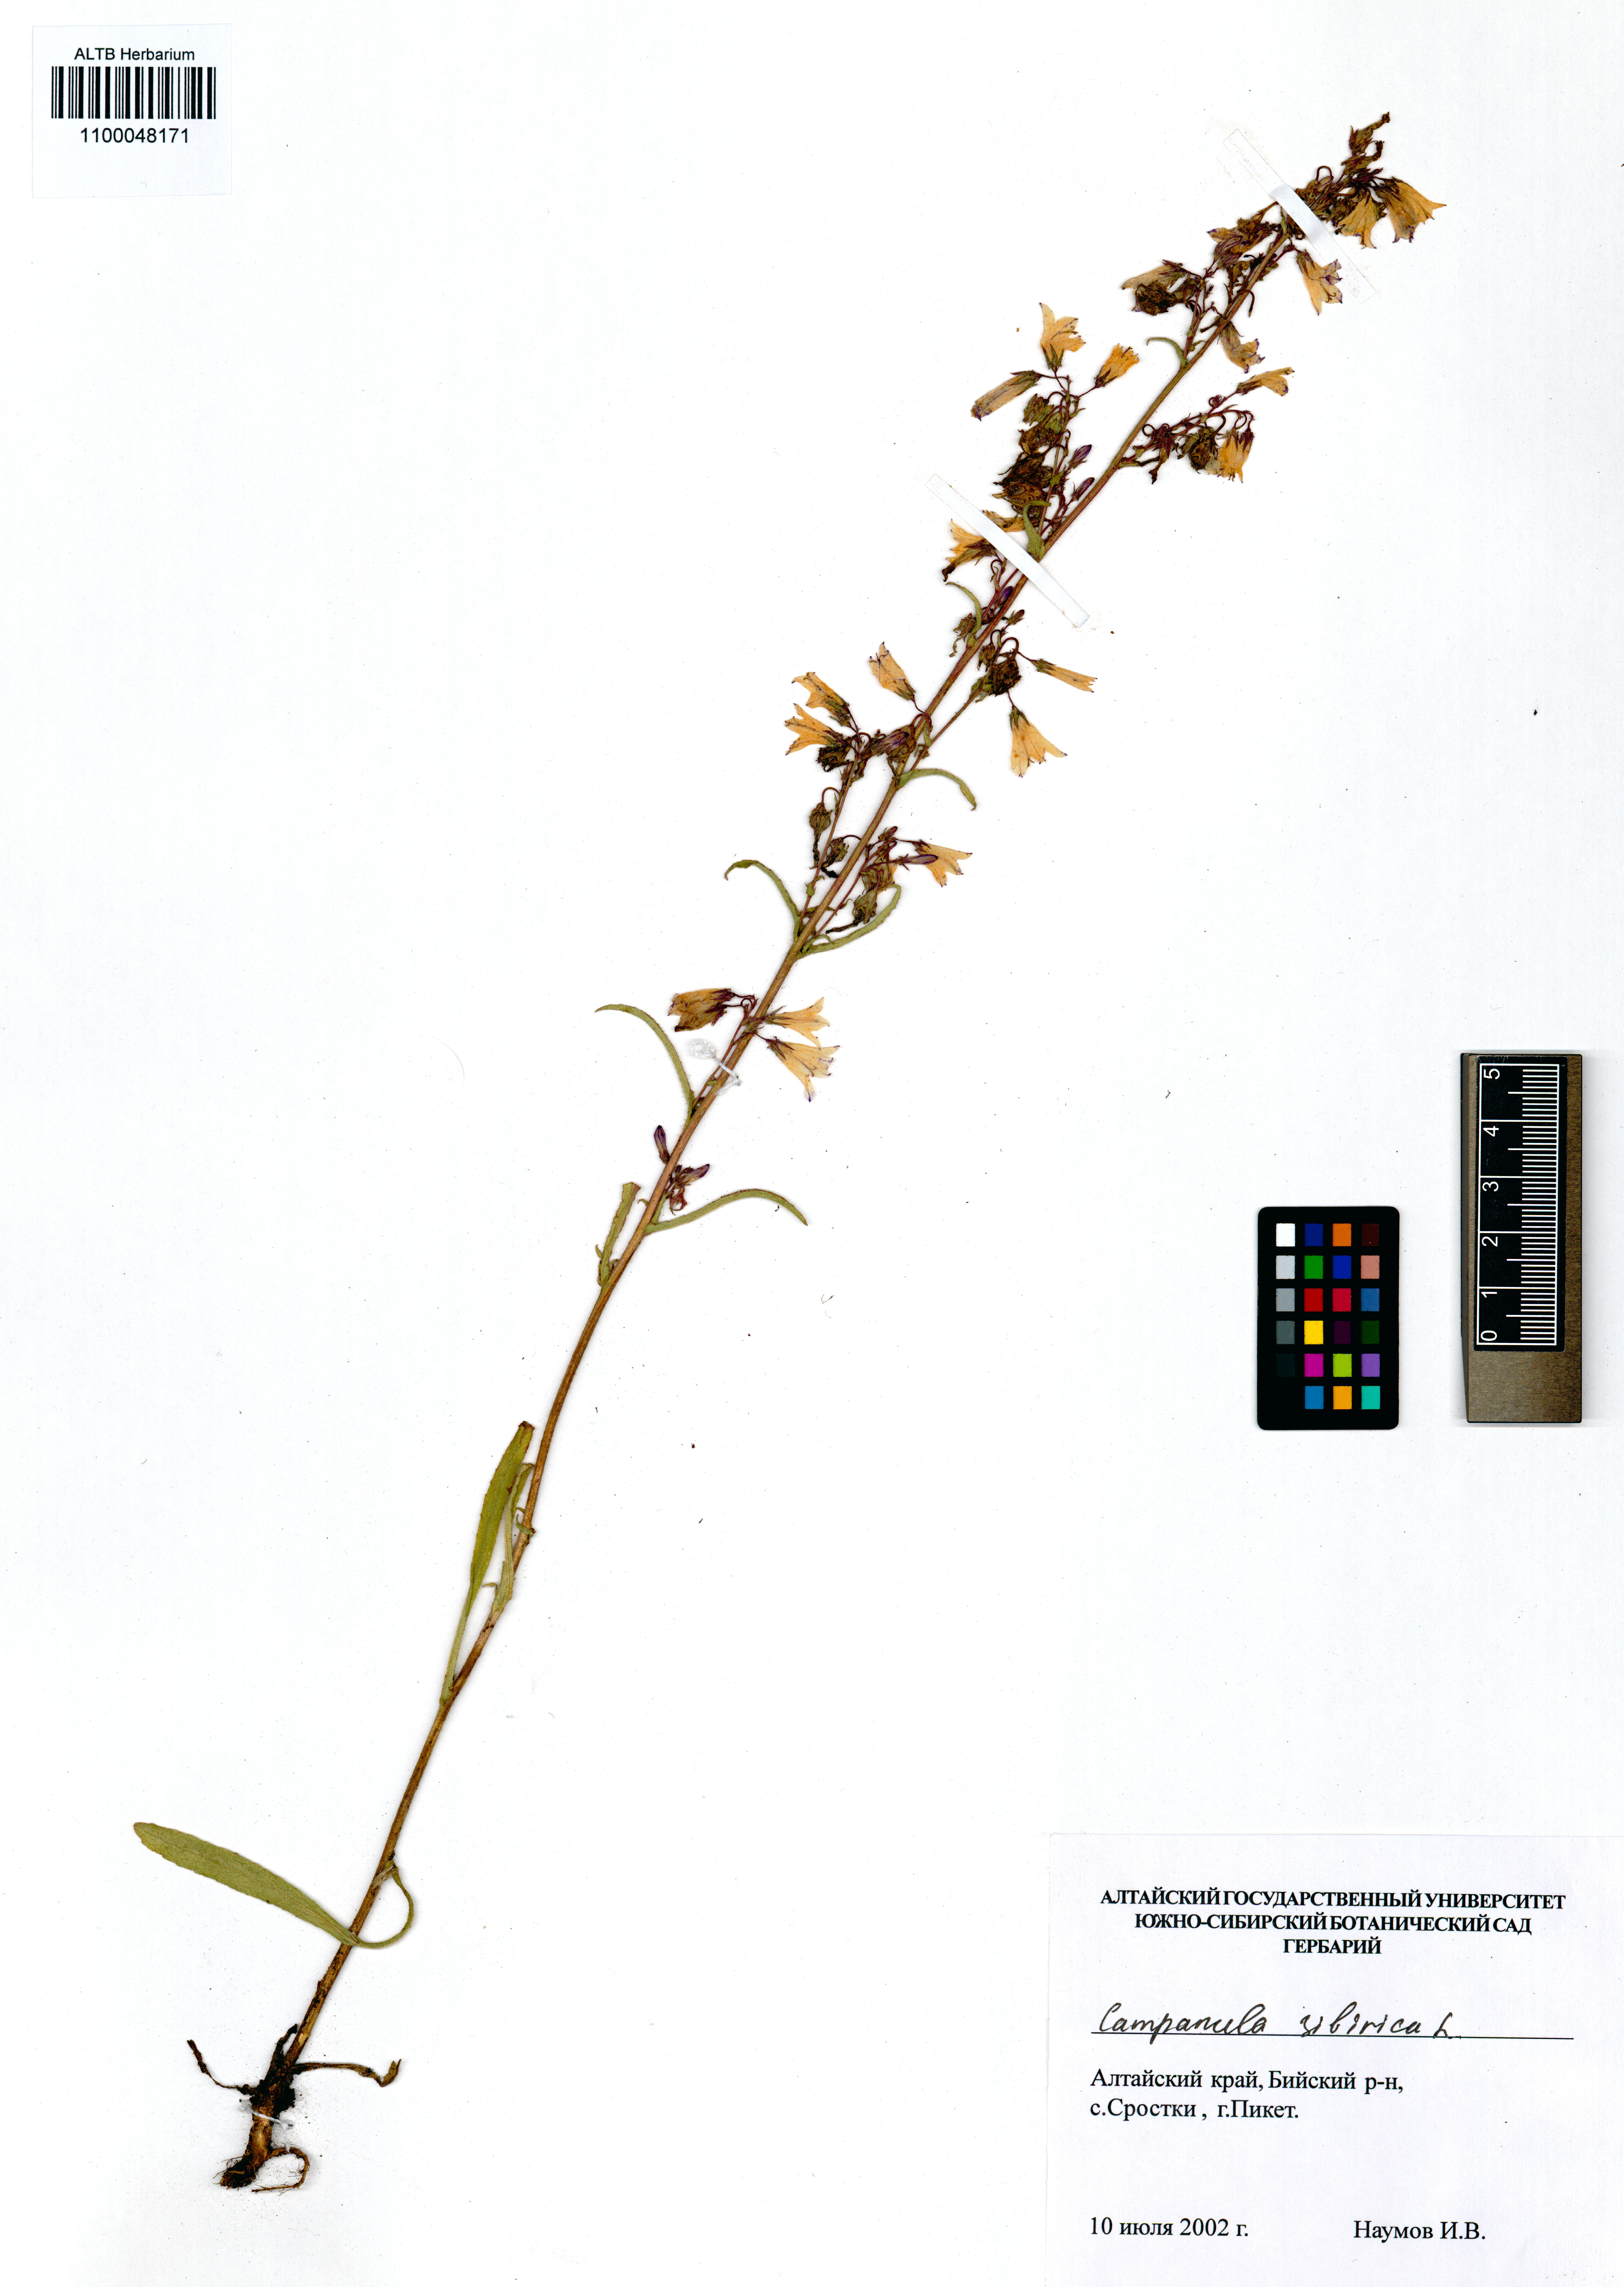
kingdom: Plantae
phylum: Tracheophyta
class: Magnoliopsida
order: Asterales
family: Campanulaceae
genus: Campanula
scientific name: Campanula sibirica
